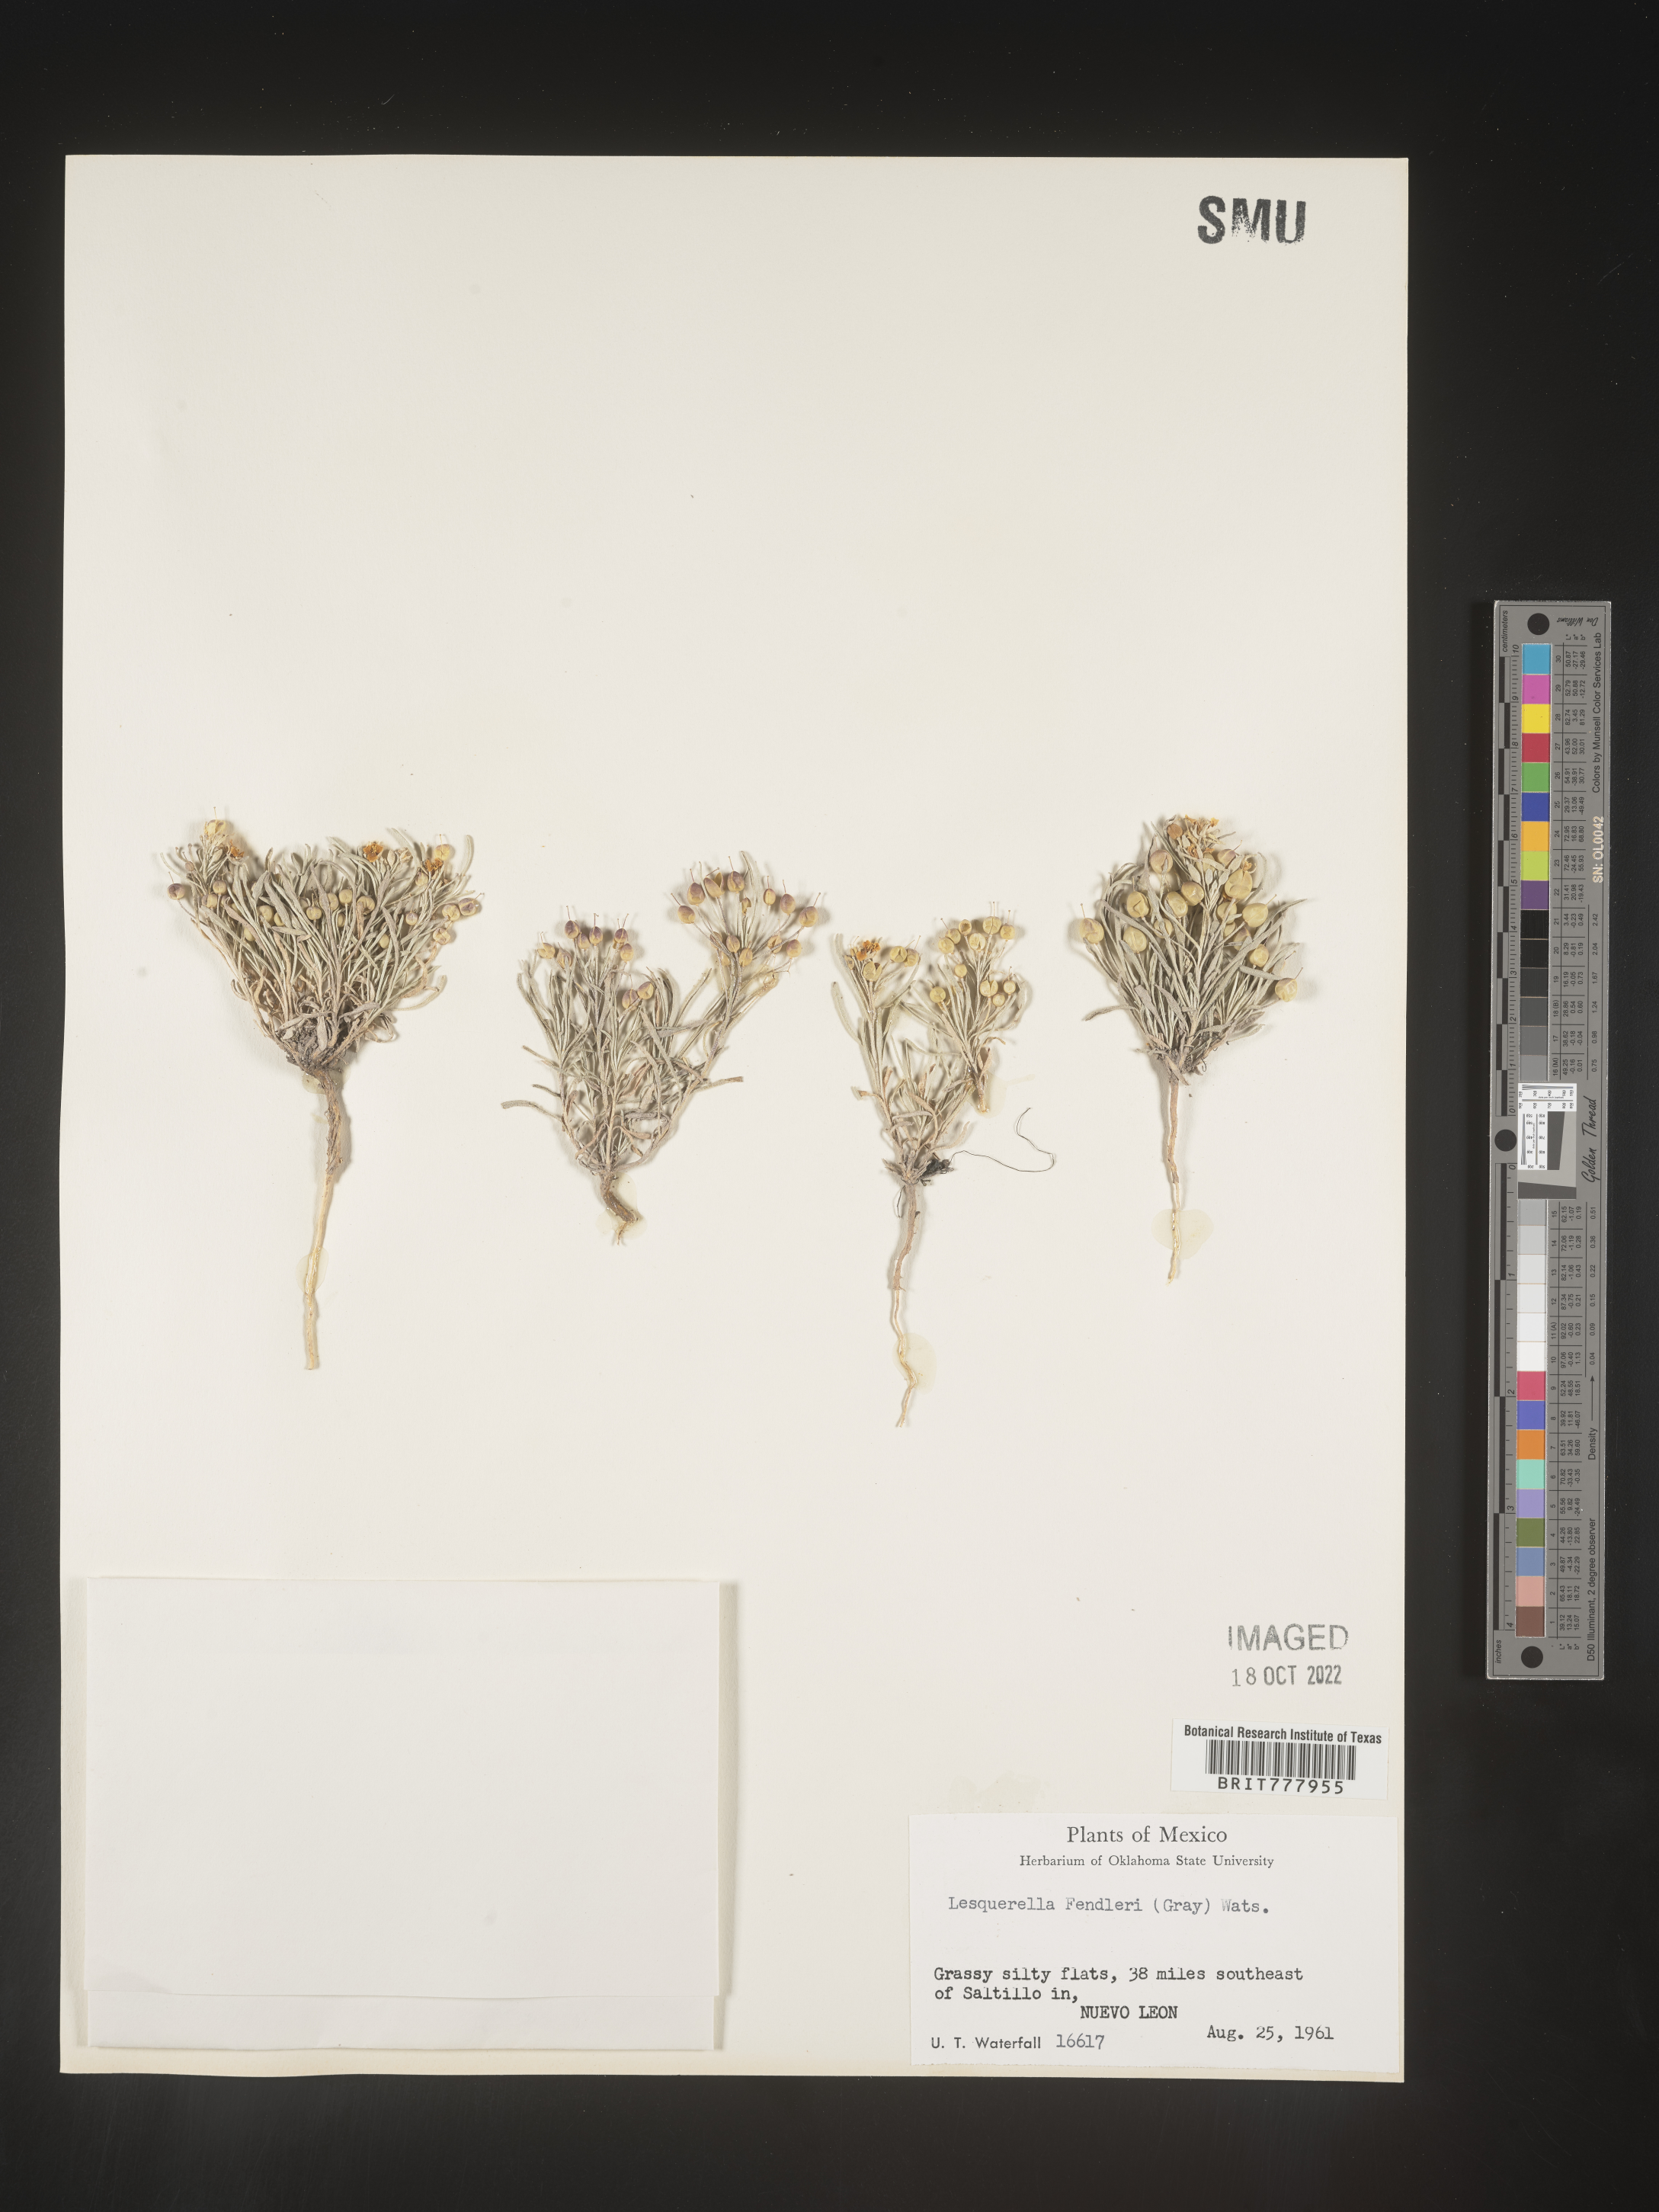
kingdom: Chromista
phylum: Cercozoa
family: Psammonobiotidae
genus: Lesquerella
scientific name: Lesquerella
